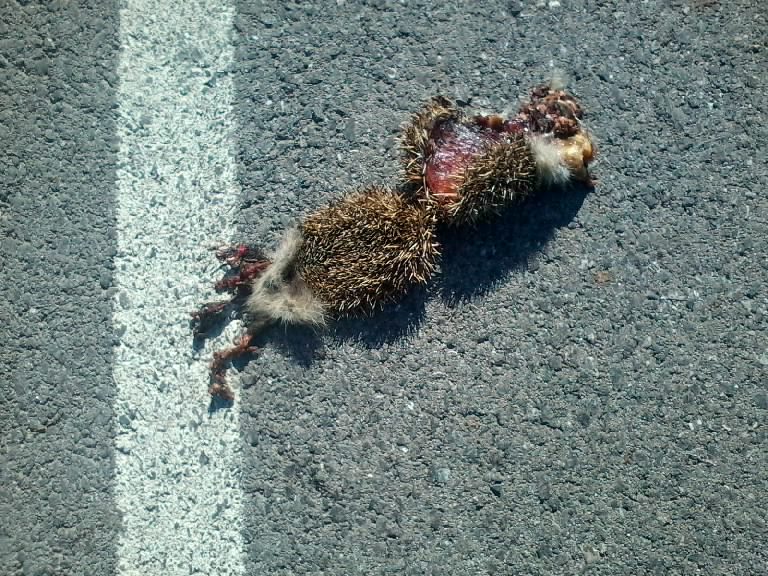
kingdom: Animalia
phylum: Chordata
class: Mammalia
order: Erinaceomorpha
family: Erinaceidae
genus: Erinaceus
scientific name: Erinaceus
